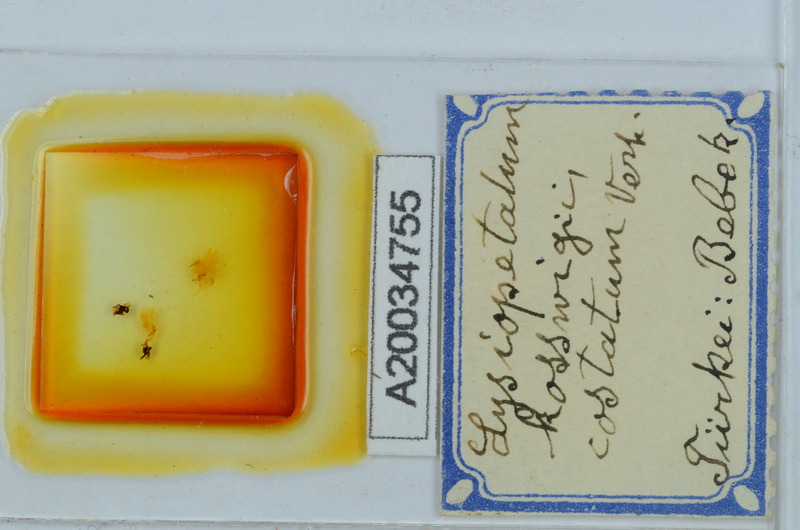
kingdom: Animalia
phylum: Arthropoda
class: Diplopoda
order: Callipodida
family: Schizopetalidae
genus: Acanthopetalum
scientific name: Acanthopetalum furculigerum
